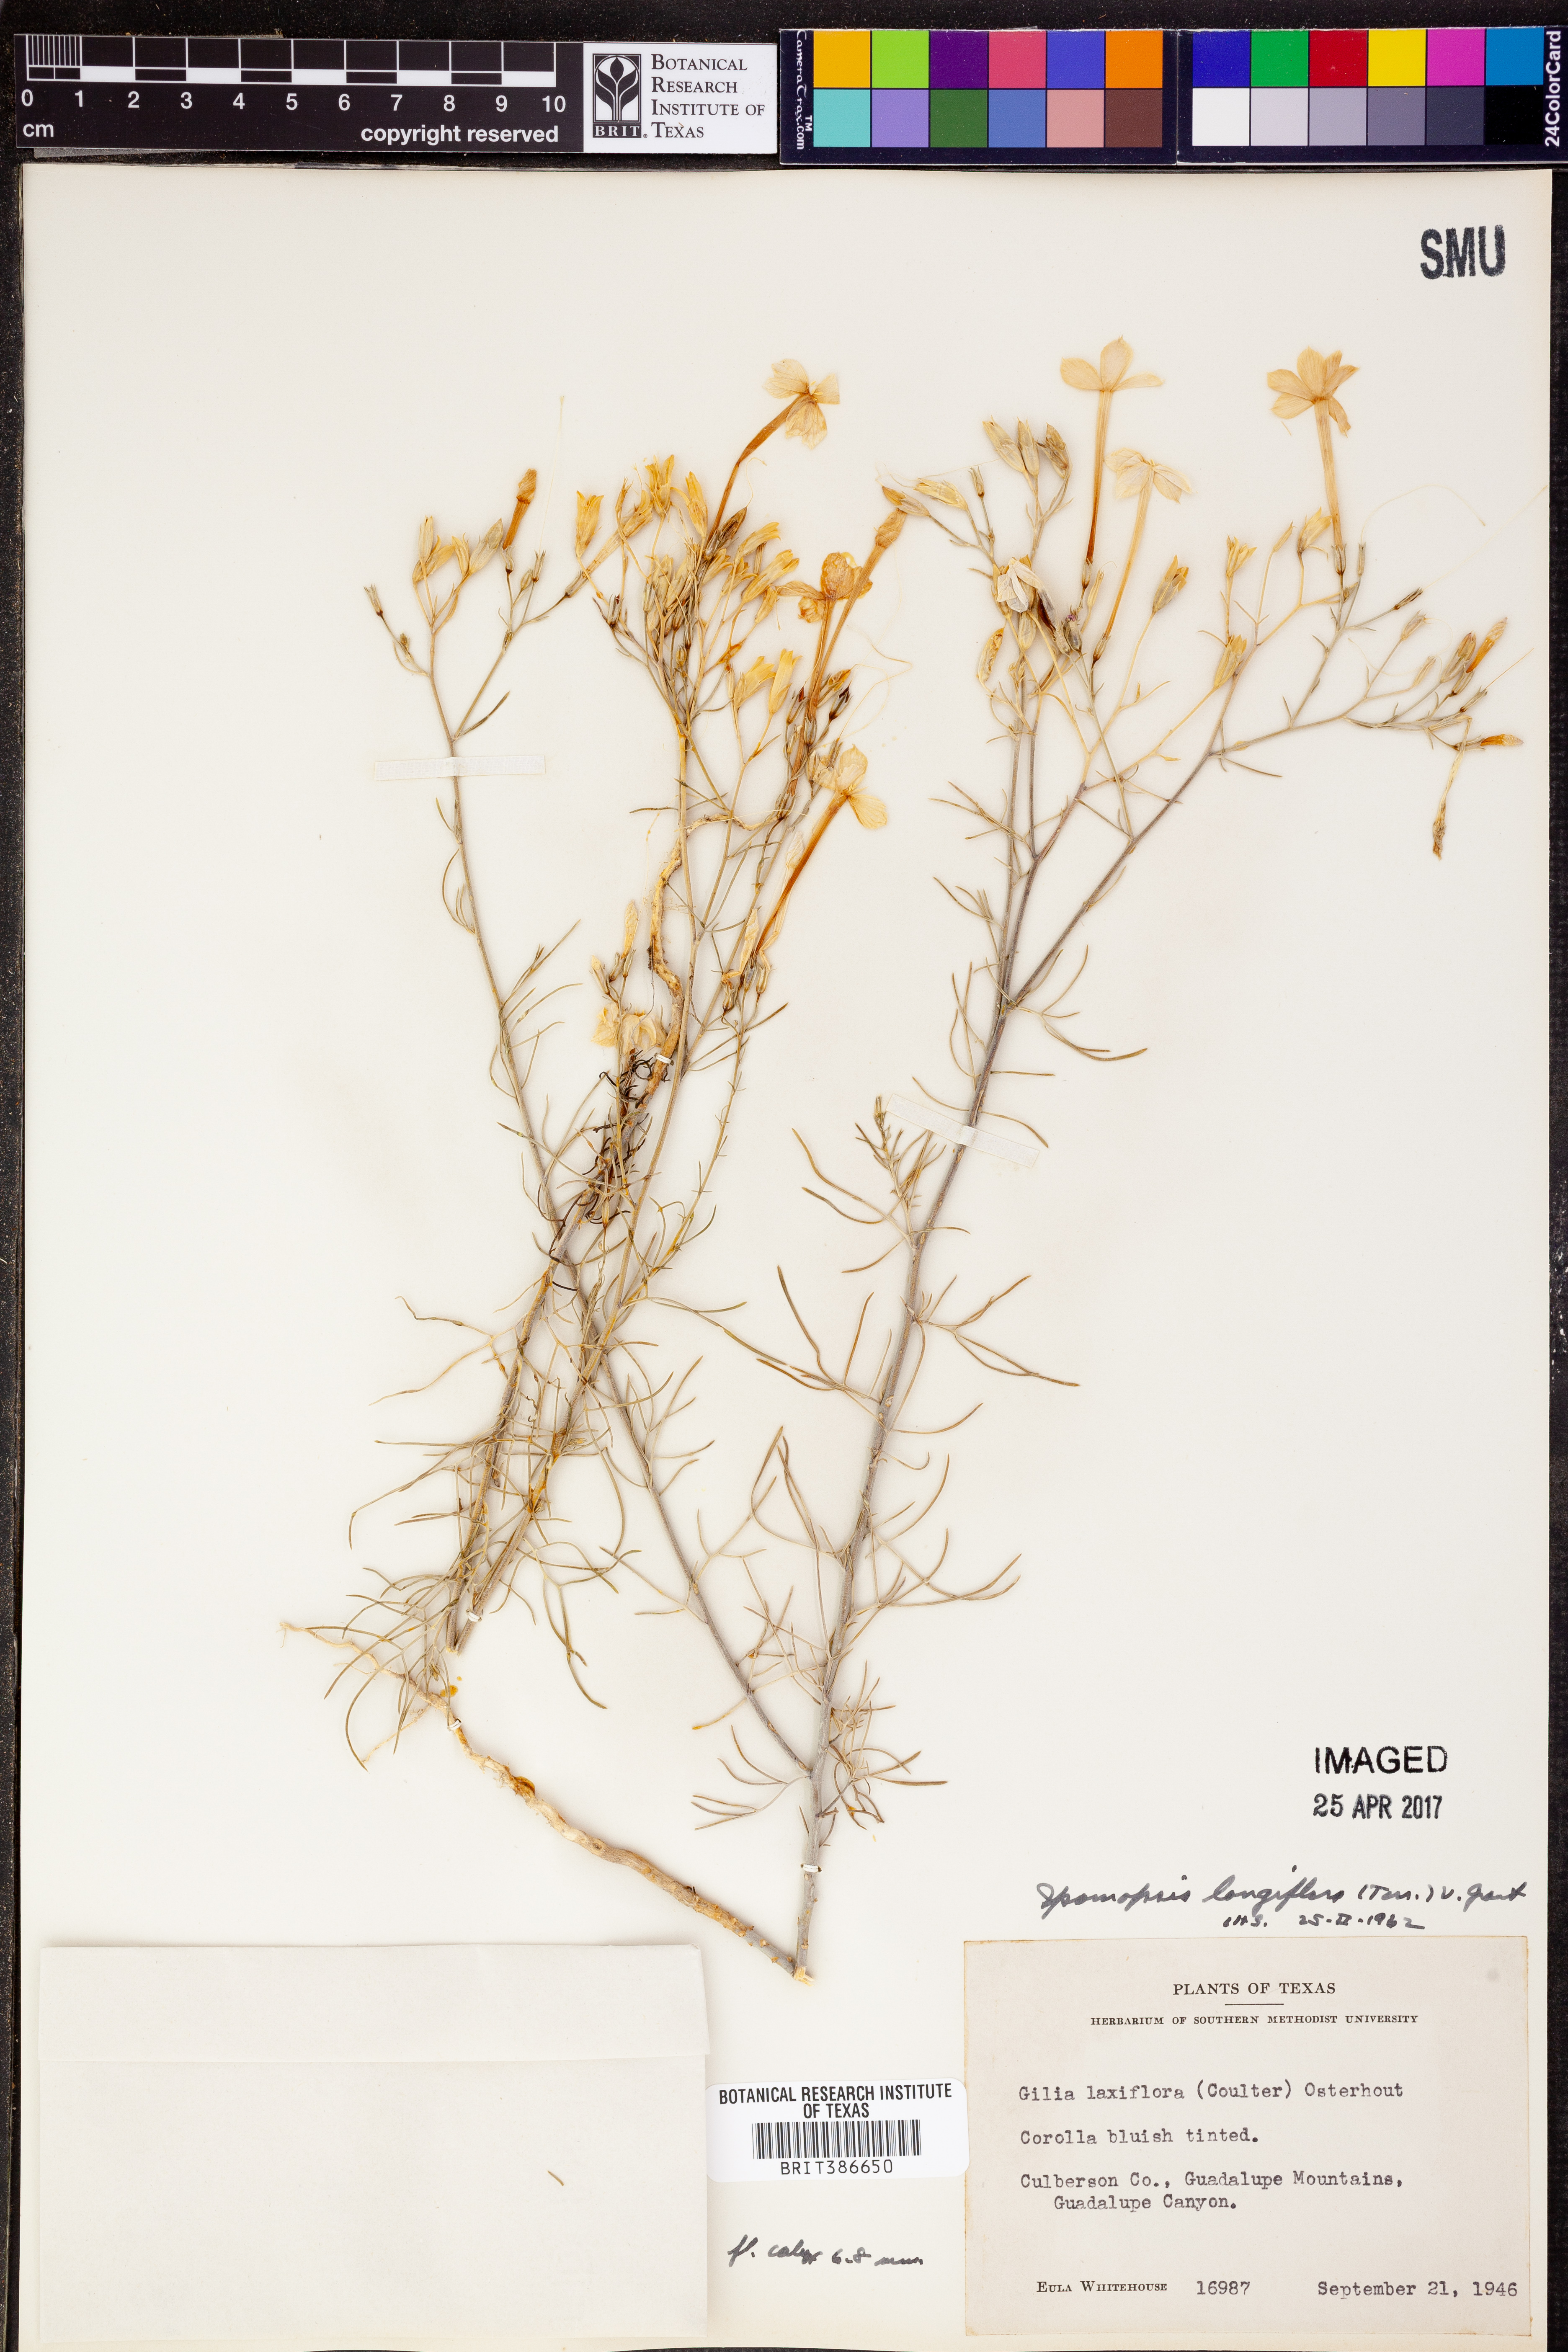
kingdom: Plantae
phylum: Tracheophyta
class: Magnoliopsida
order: Ericales
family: Polemoniaceae
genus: Ipomopsis
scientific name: Ipomopsis longiflora
